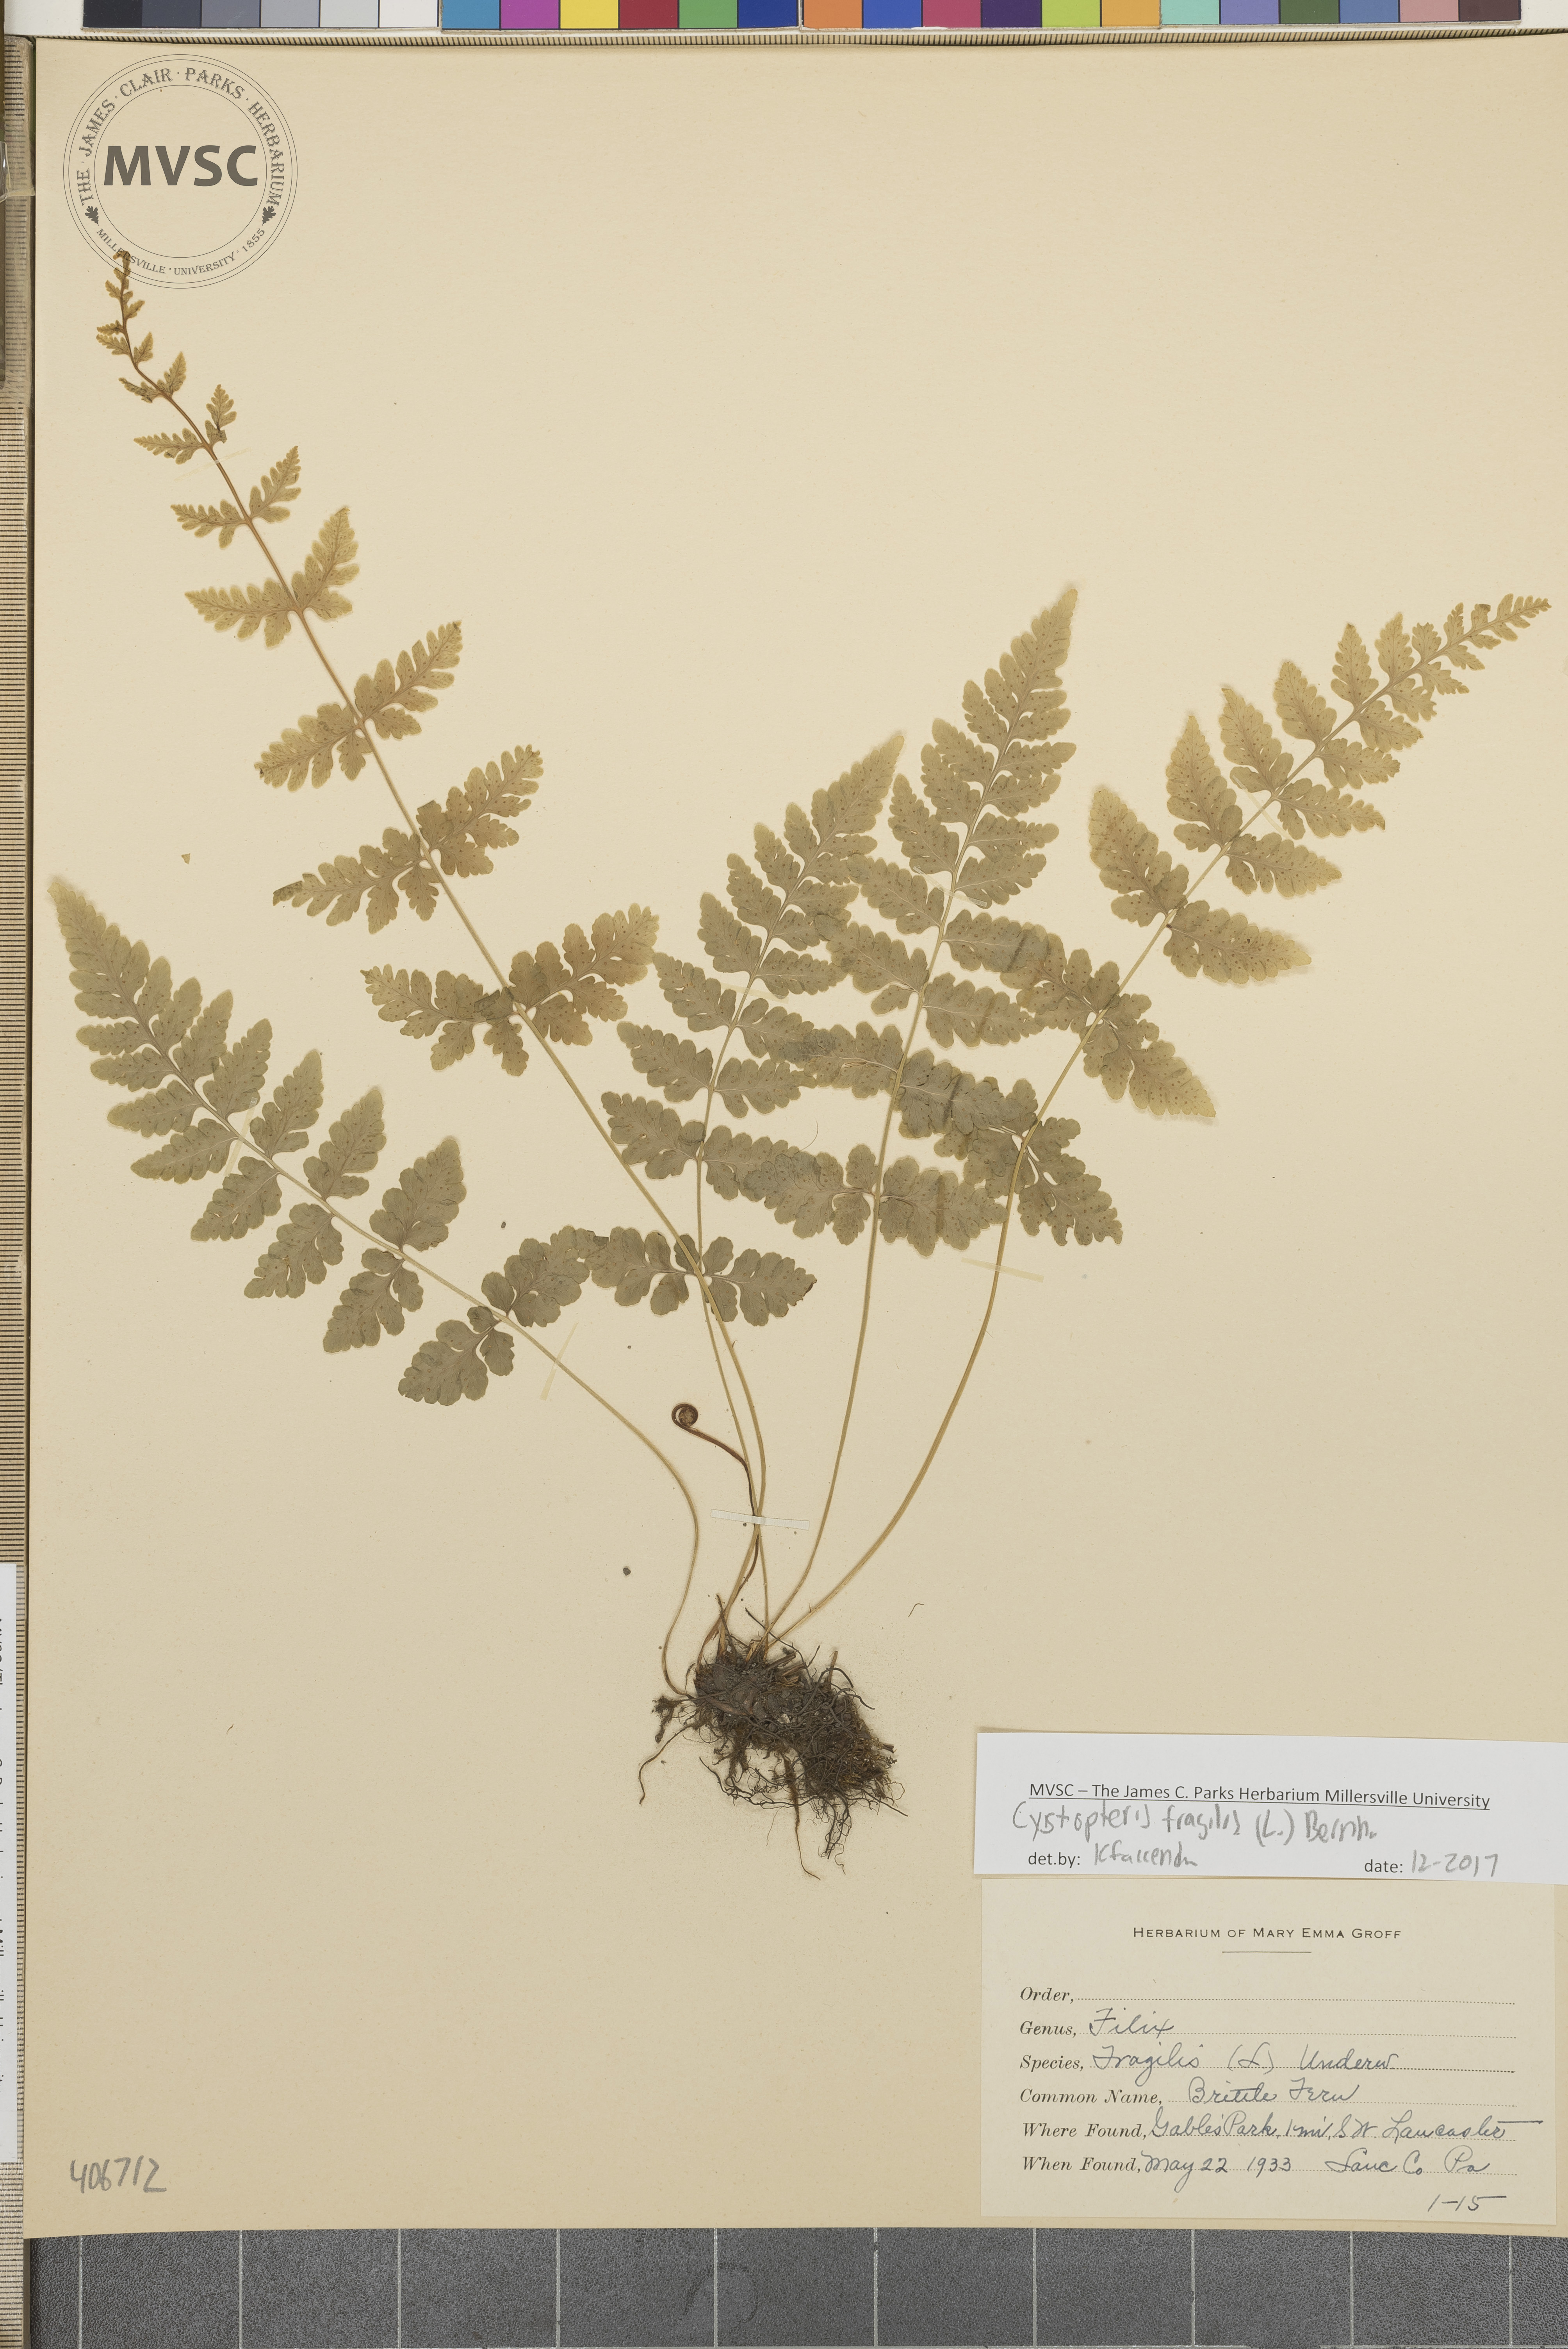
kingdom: Plantae
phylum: Tracheophyta
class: Polypodiopsida
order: Polypodiales
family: Cystopteridaceae
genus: Cystopteris
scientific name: Cystopteris fragilis
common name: Brittle bladder fern
